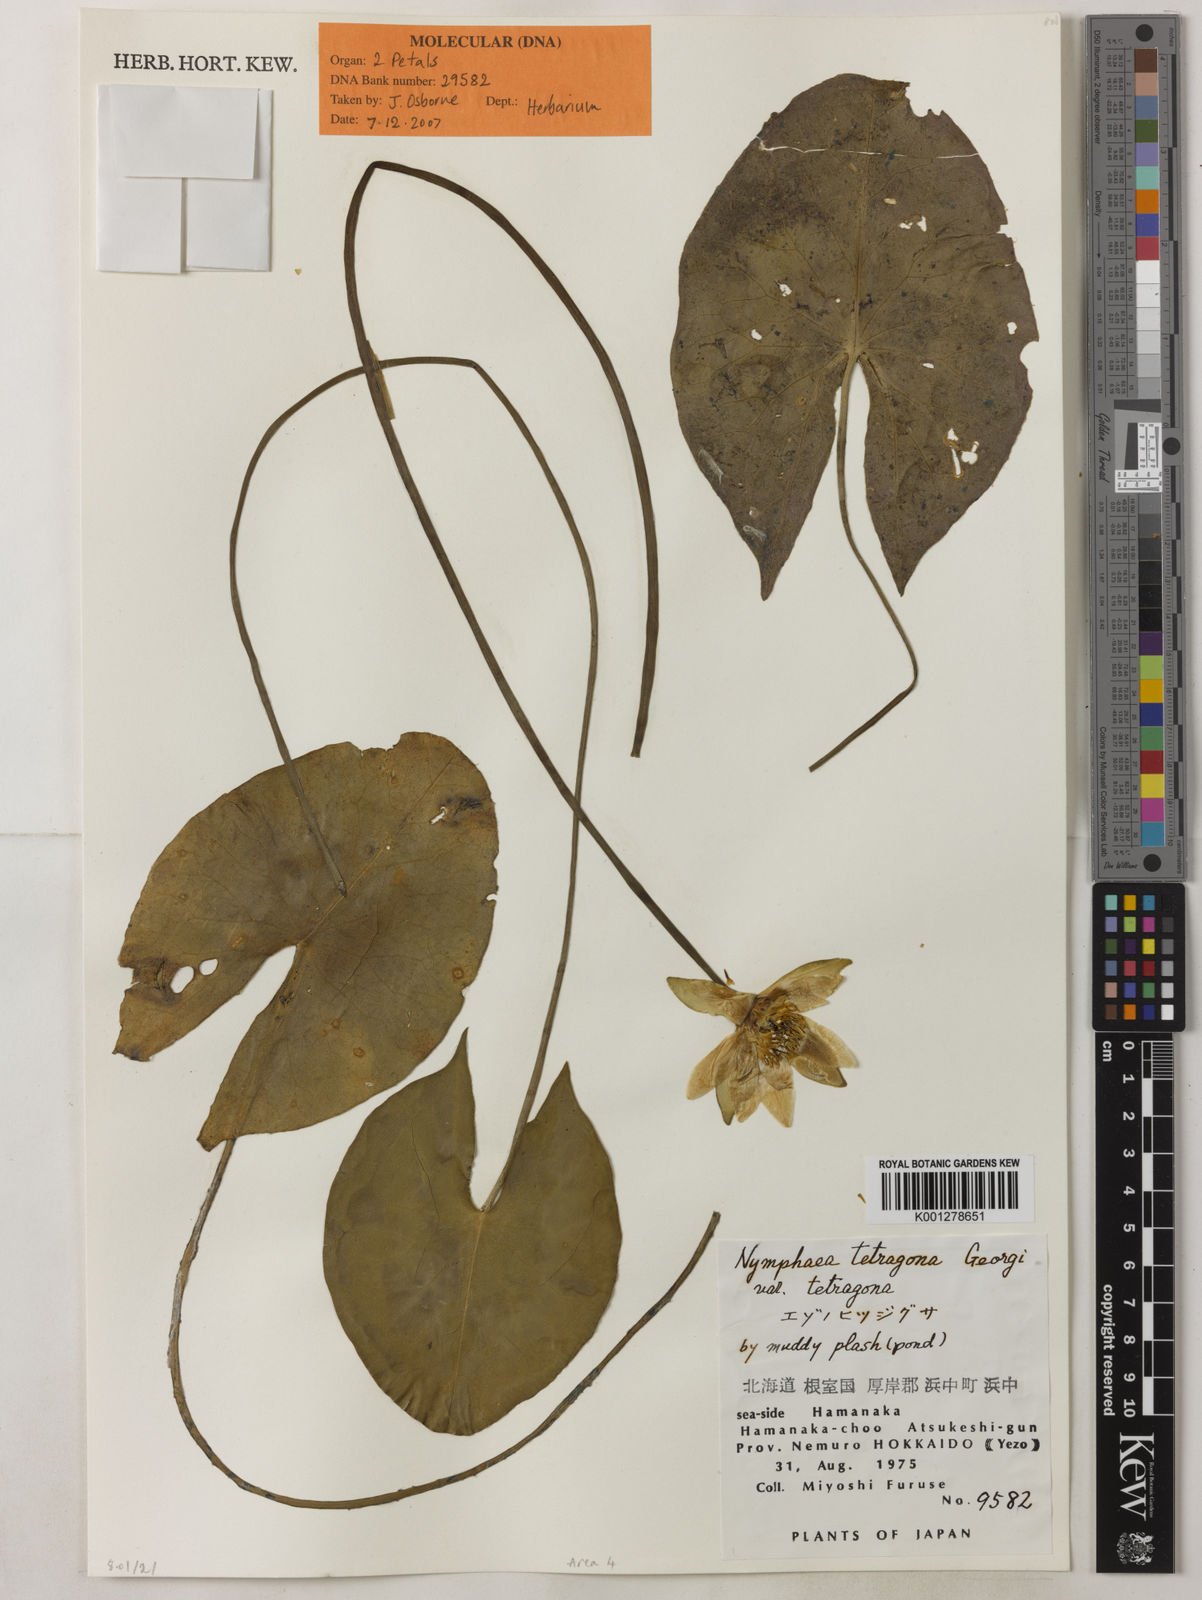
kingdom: Plantae
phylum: Tracheophyta
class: Magnoliopsida
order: Nymphaeales
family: Nymphaeaceae
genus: Nymphaea
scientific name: Nymphaea tetragona
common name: Pygmy water-lily
